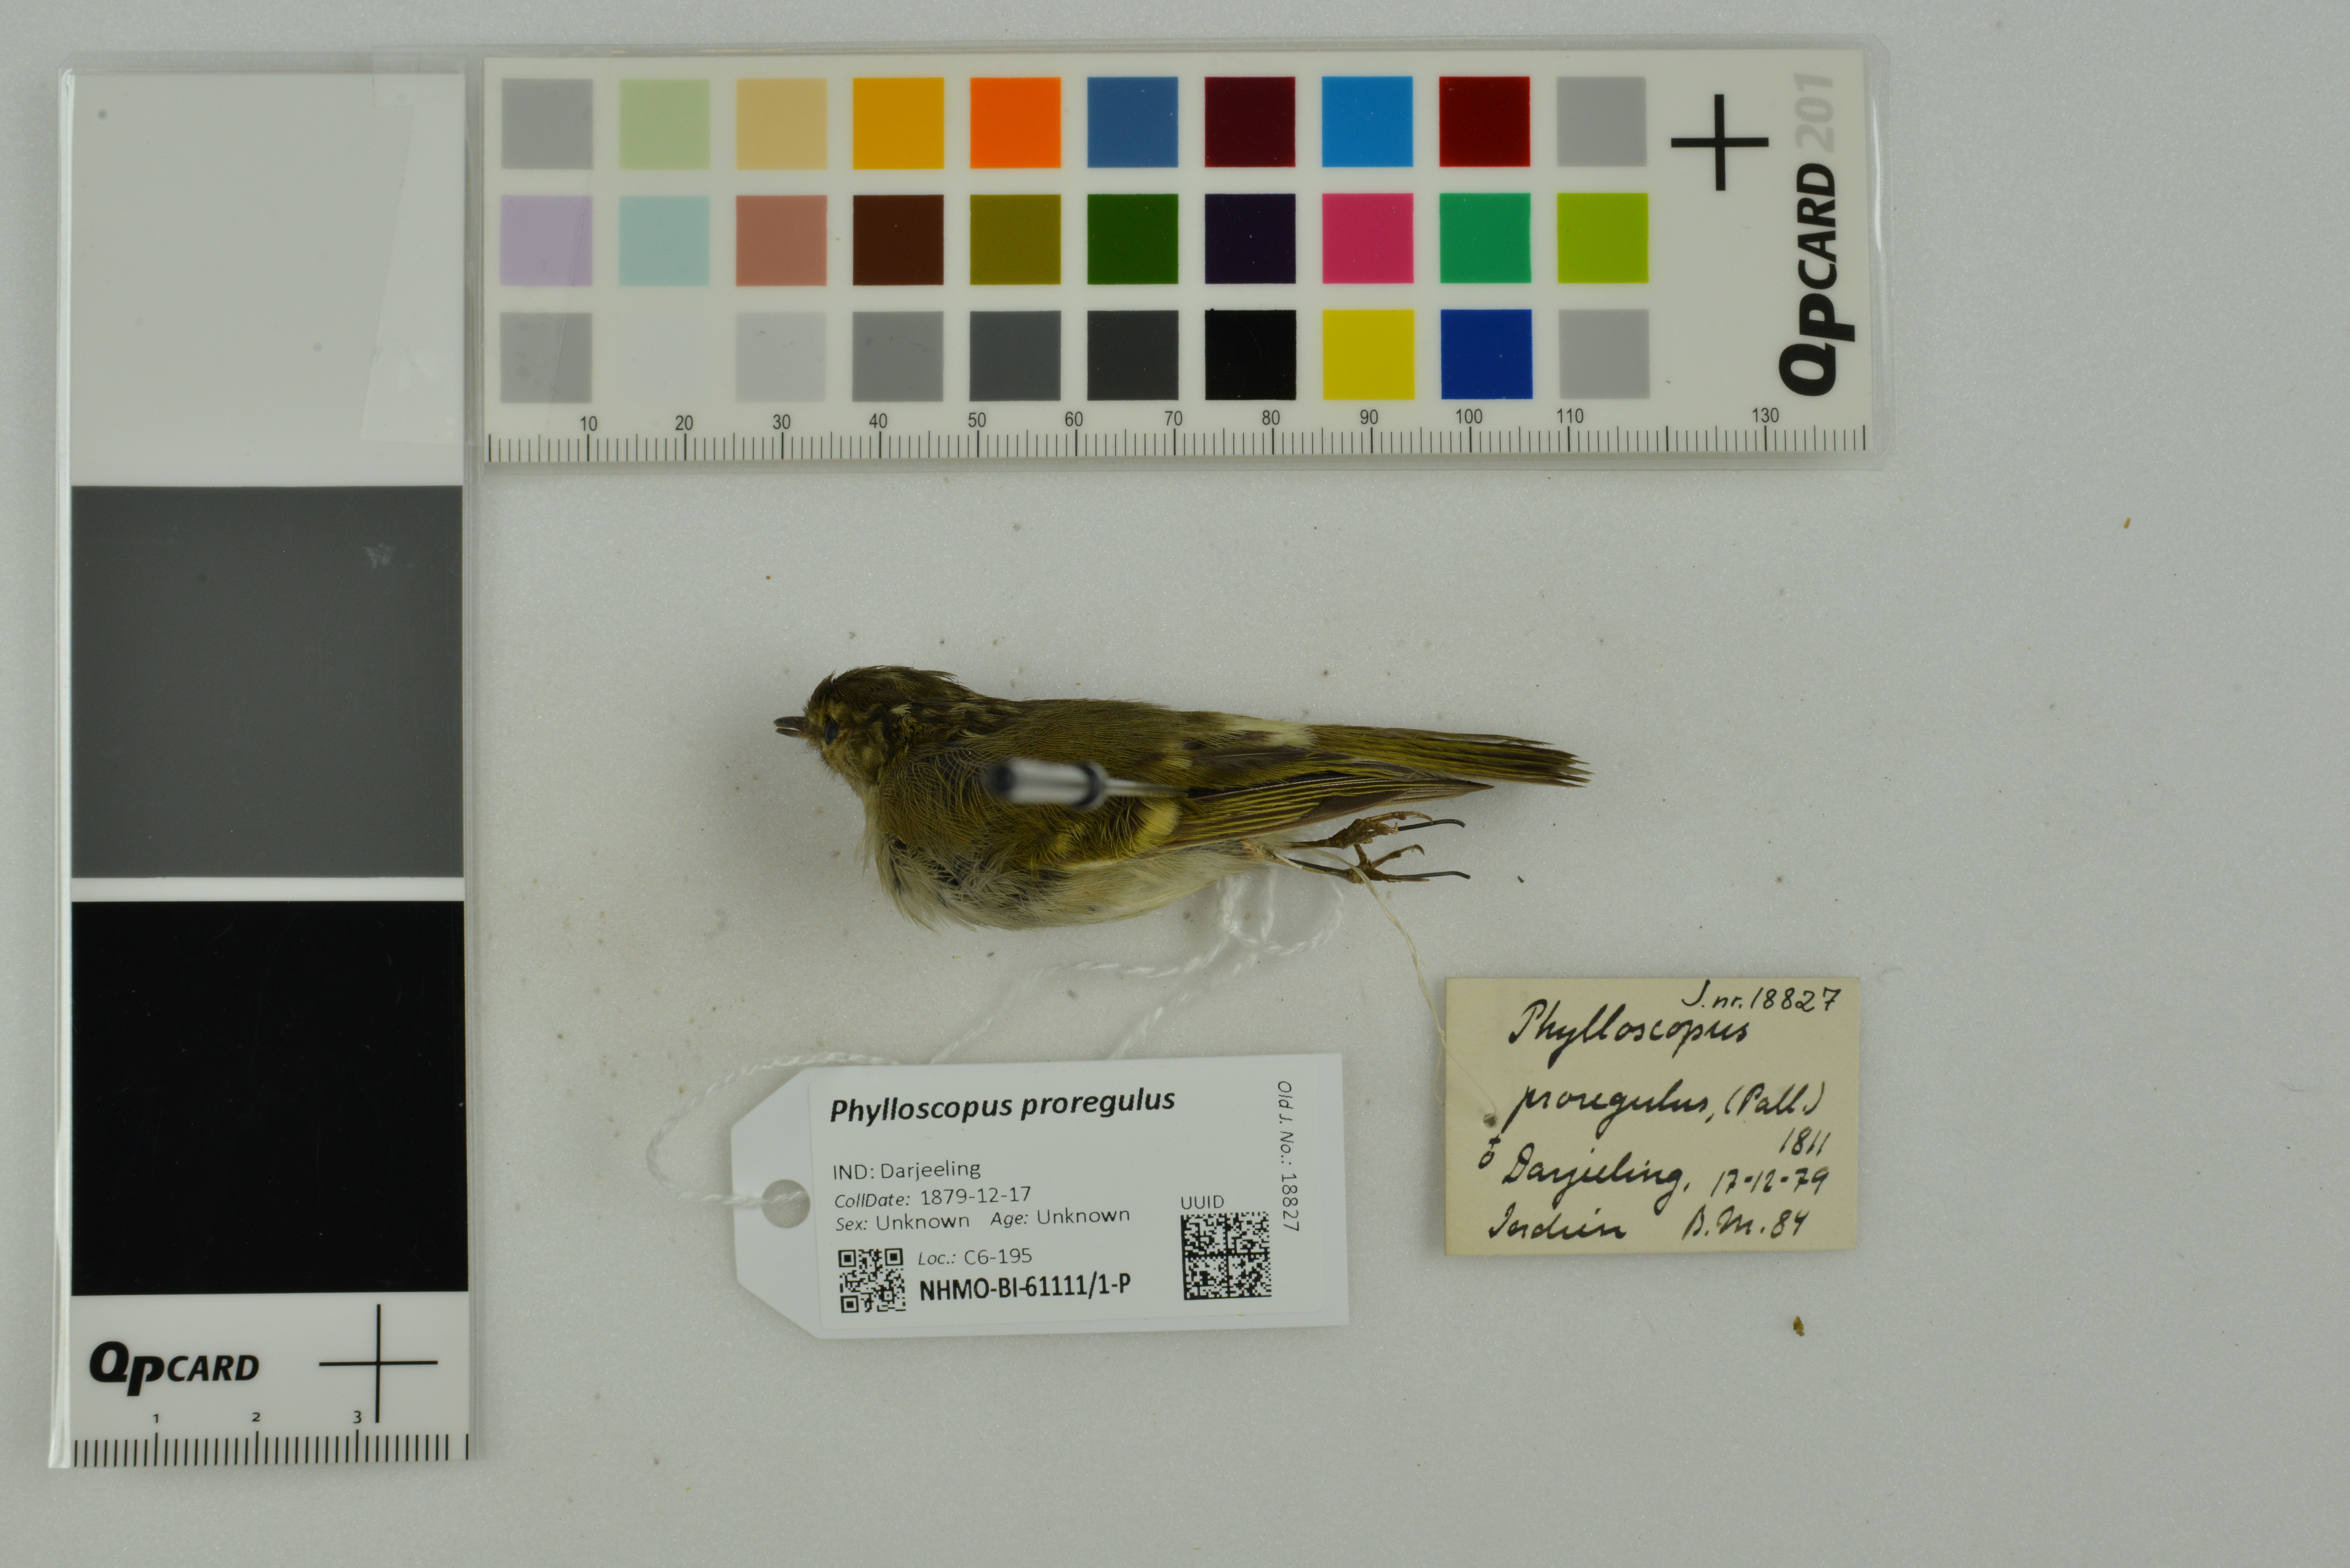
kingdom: Animalia
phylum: Chordata
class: Aves
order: Passeriformes
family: Phylloscopidae
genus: Phylloscopus
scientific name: Phylloscopus proregulus
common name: Pallas's leaf warbler
